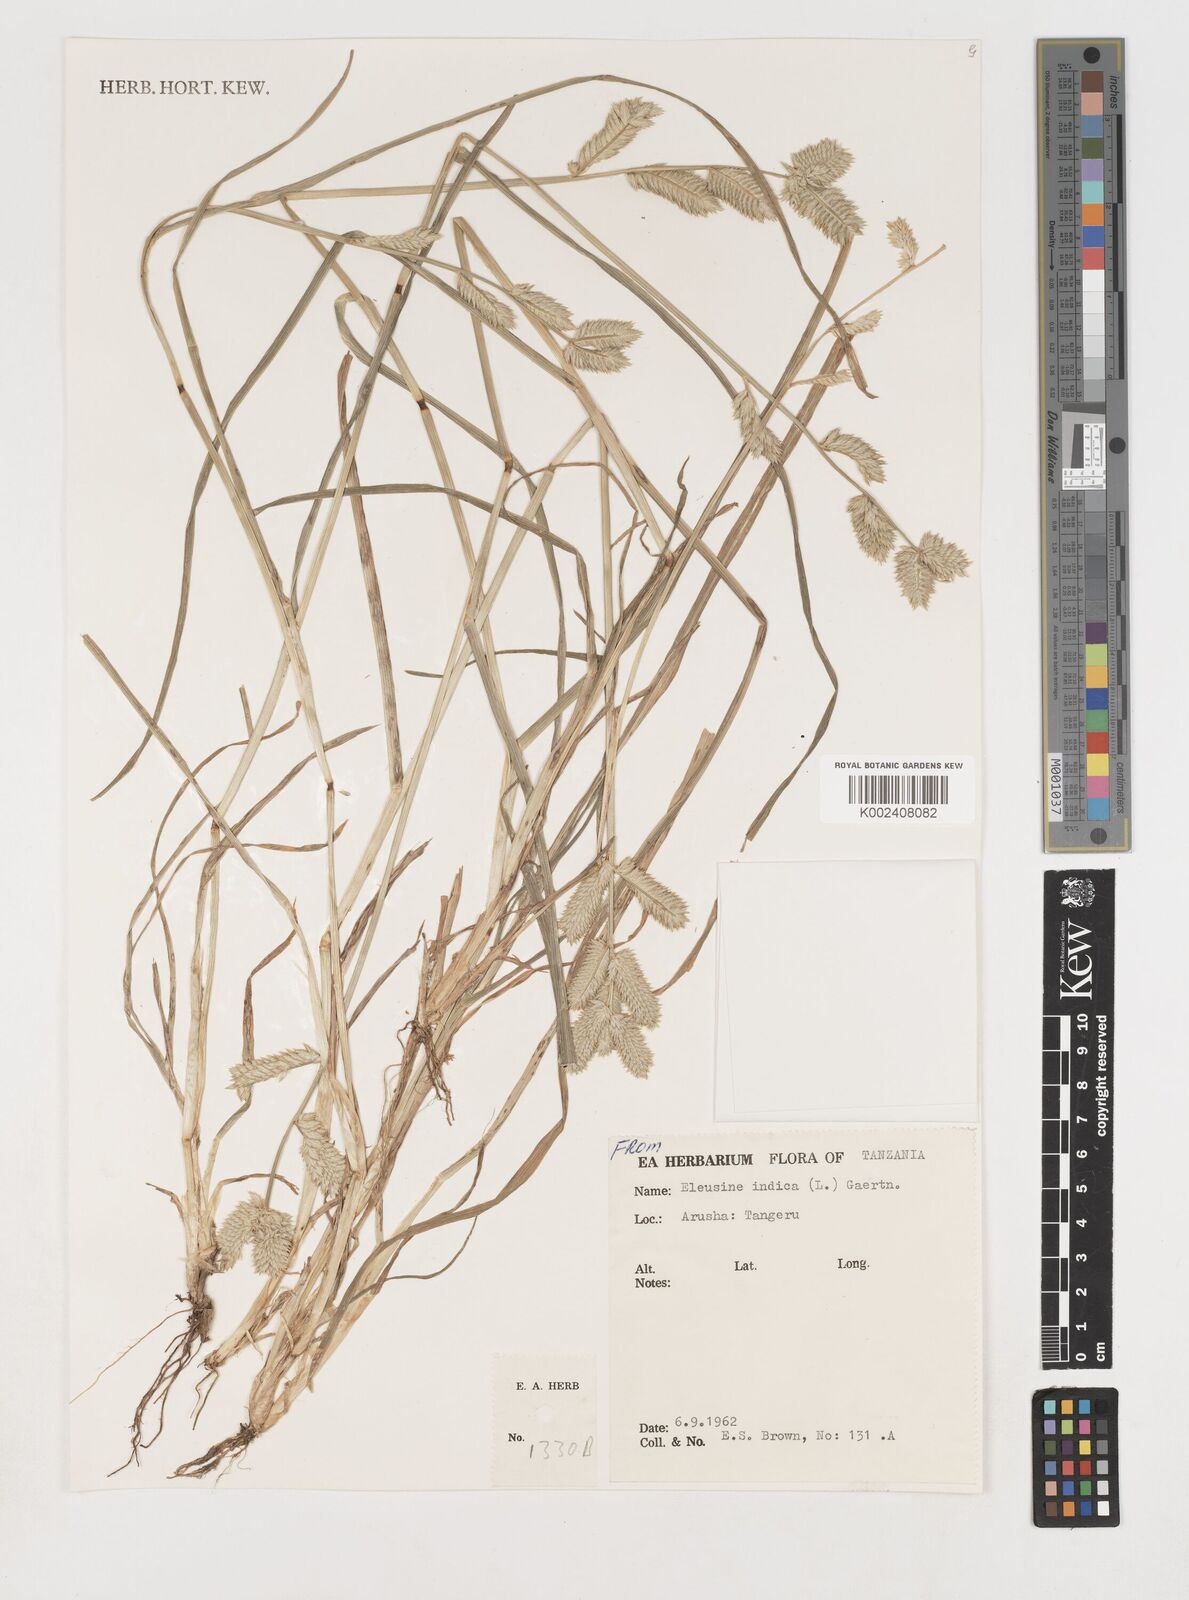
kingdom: Plantae
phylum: Tracheophyta
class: Liliopsida
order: Poales
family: Poaceae
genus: Eleusine
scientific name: Eleusine multiflora
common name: Fat-spiked yard-grass
